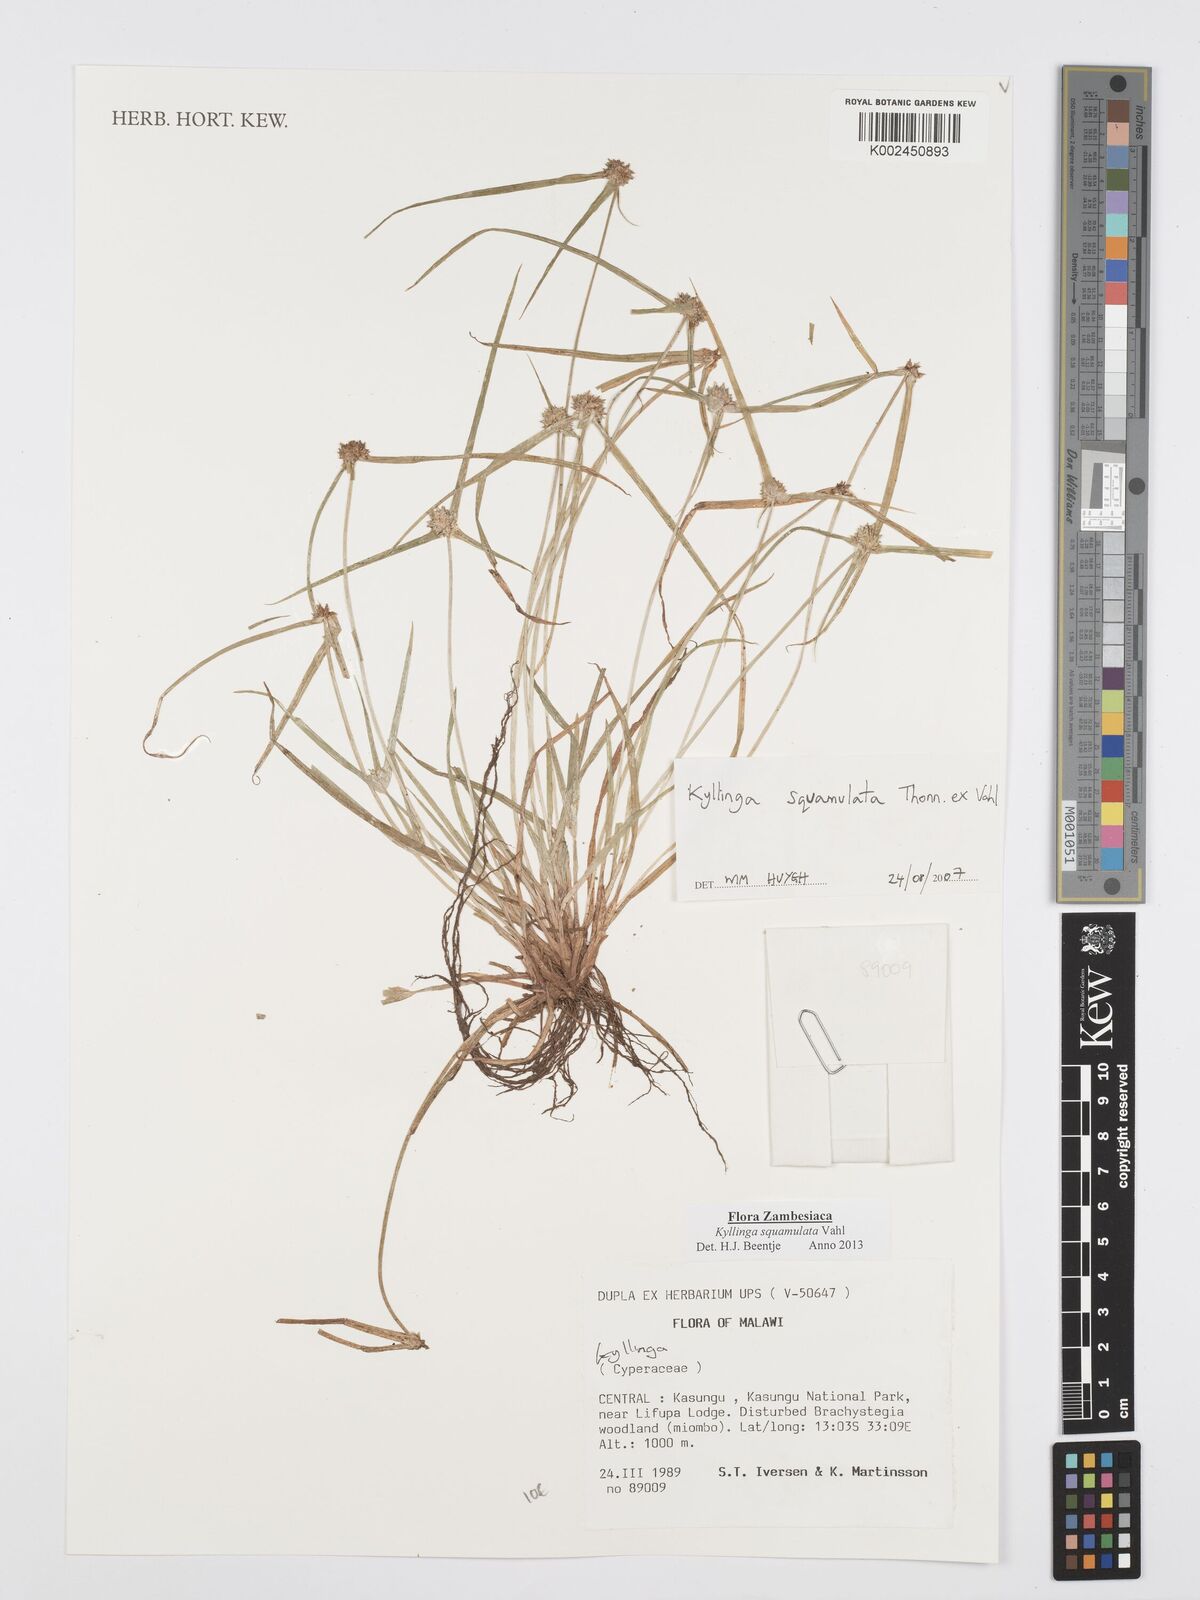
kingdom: Plantae
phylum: Tracheophyta
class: Liliopsida
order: Poales
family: Cyperaceae
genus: Cyperus
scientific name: Cyperus distans
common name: Slender cyperus
